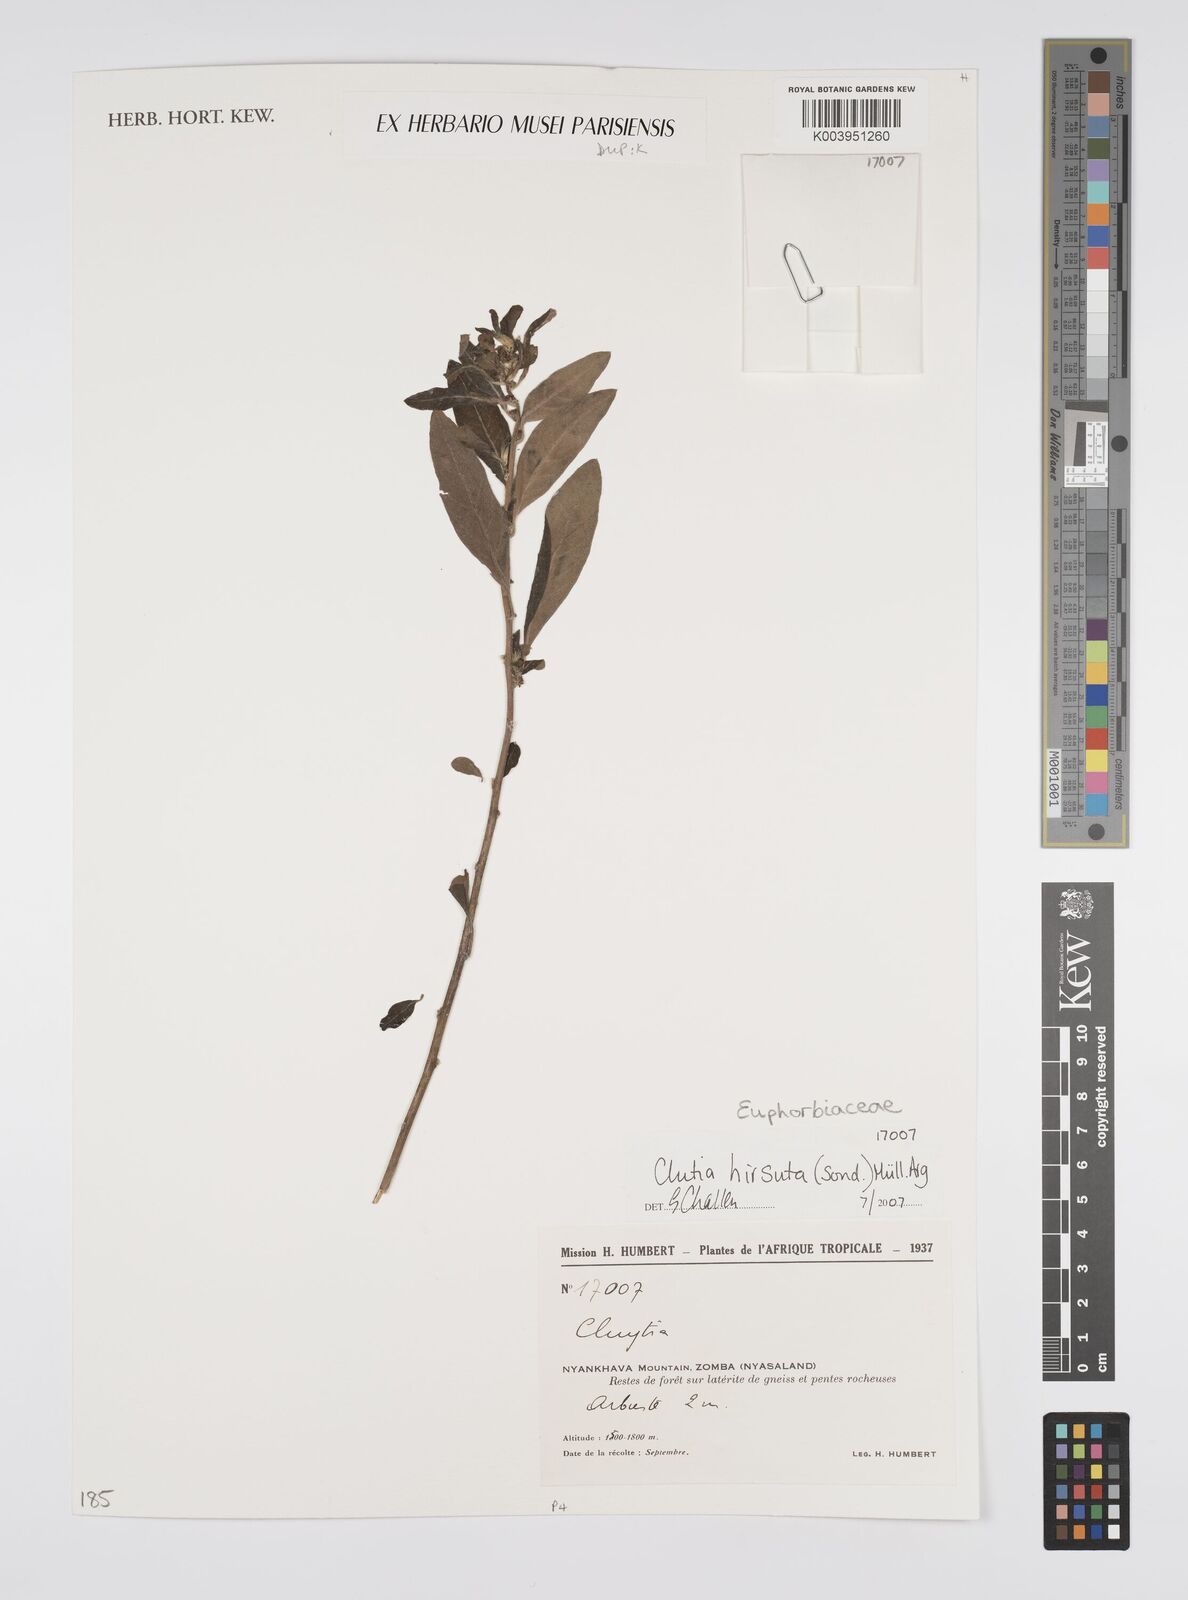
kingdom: Plantae
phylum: Tracheophyta
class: Magnoliopsida
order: Malpighiales
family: Peraceae
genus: Clutia
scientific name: Clutia
